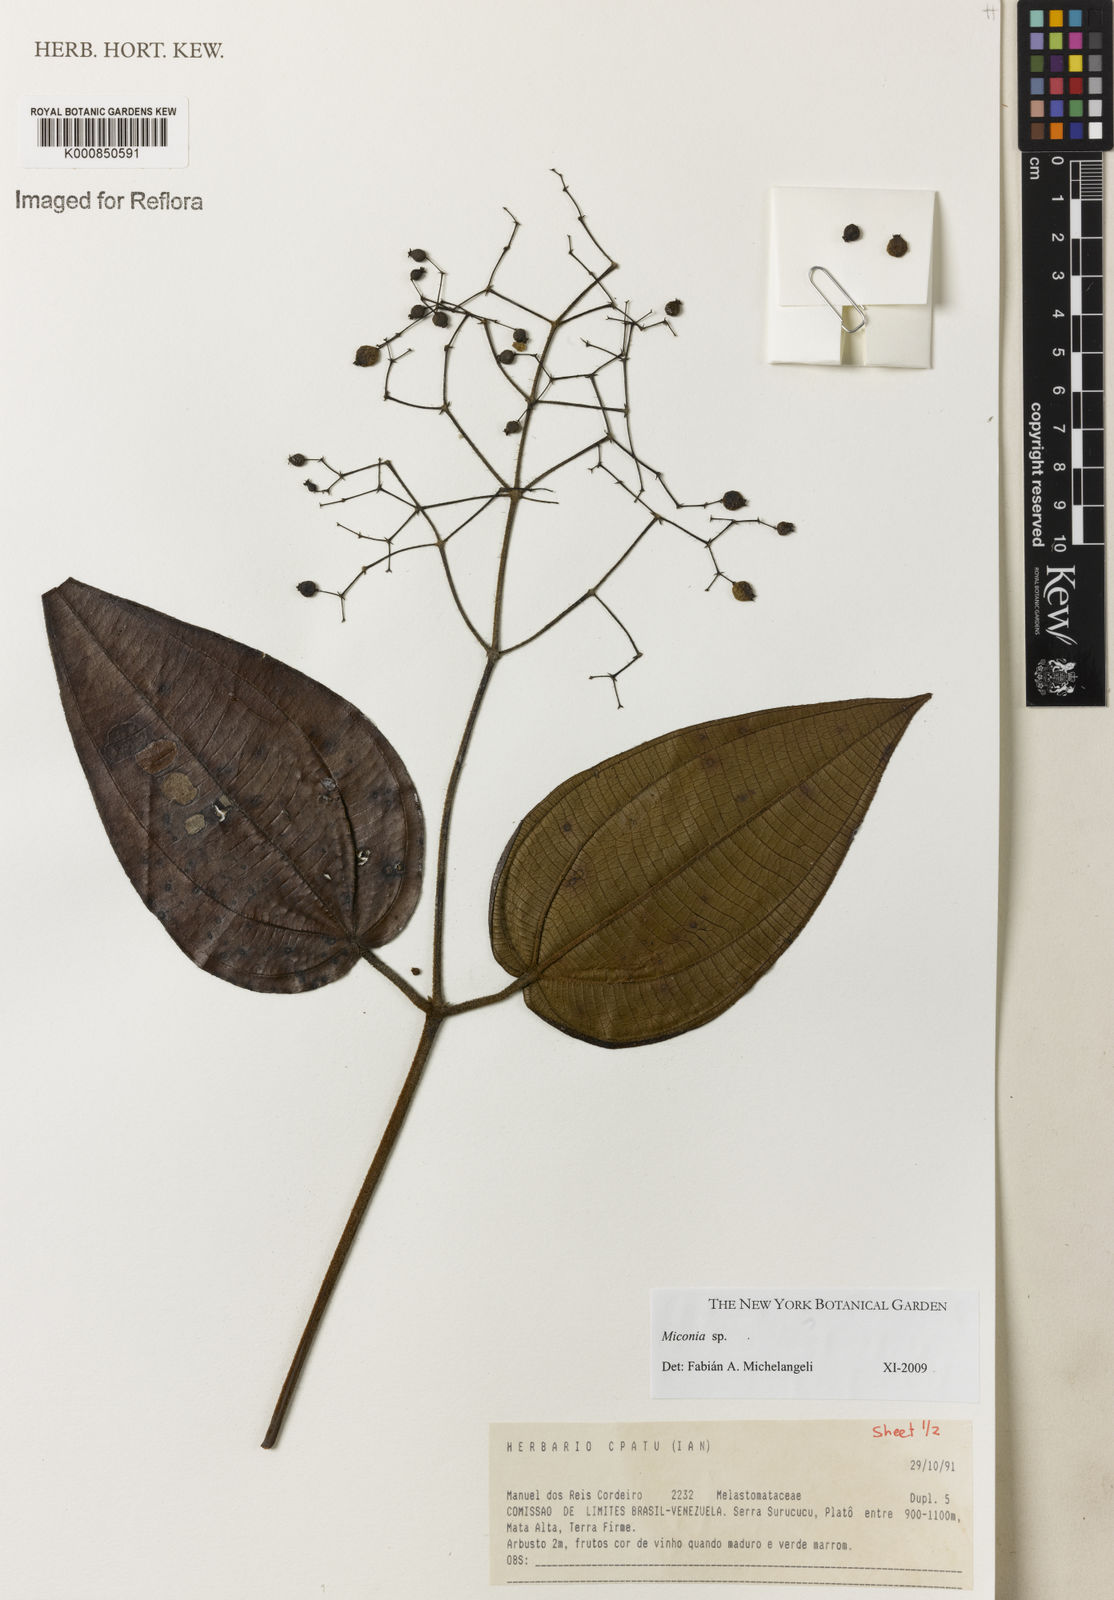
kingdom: Plantae
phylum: Tracheophyta
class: Magnoliopsida
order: Myrtales
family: Melastomataceae
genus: Miconia
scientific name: Miconia
